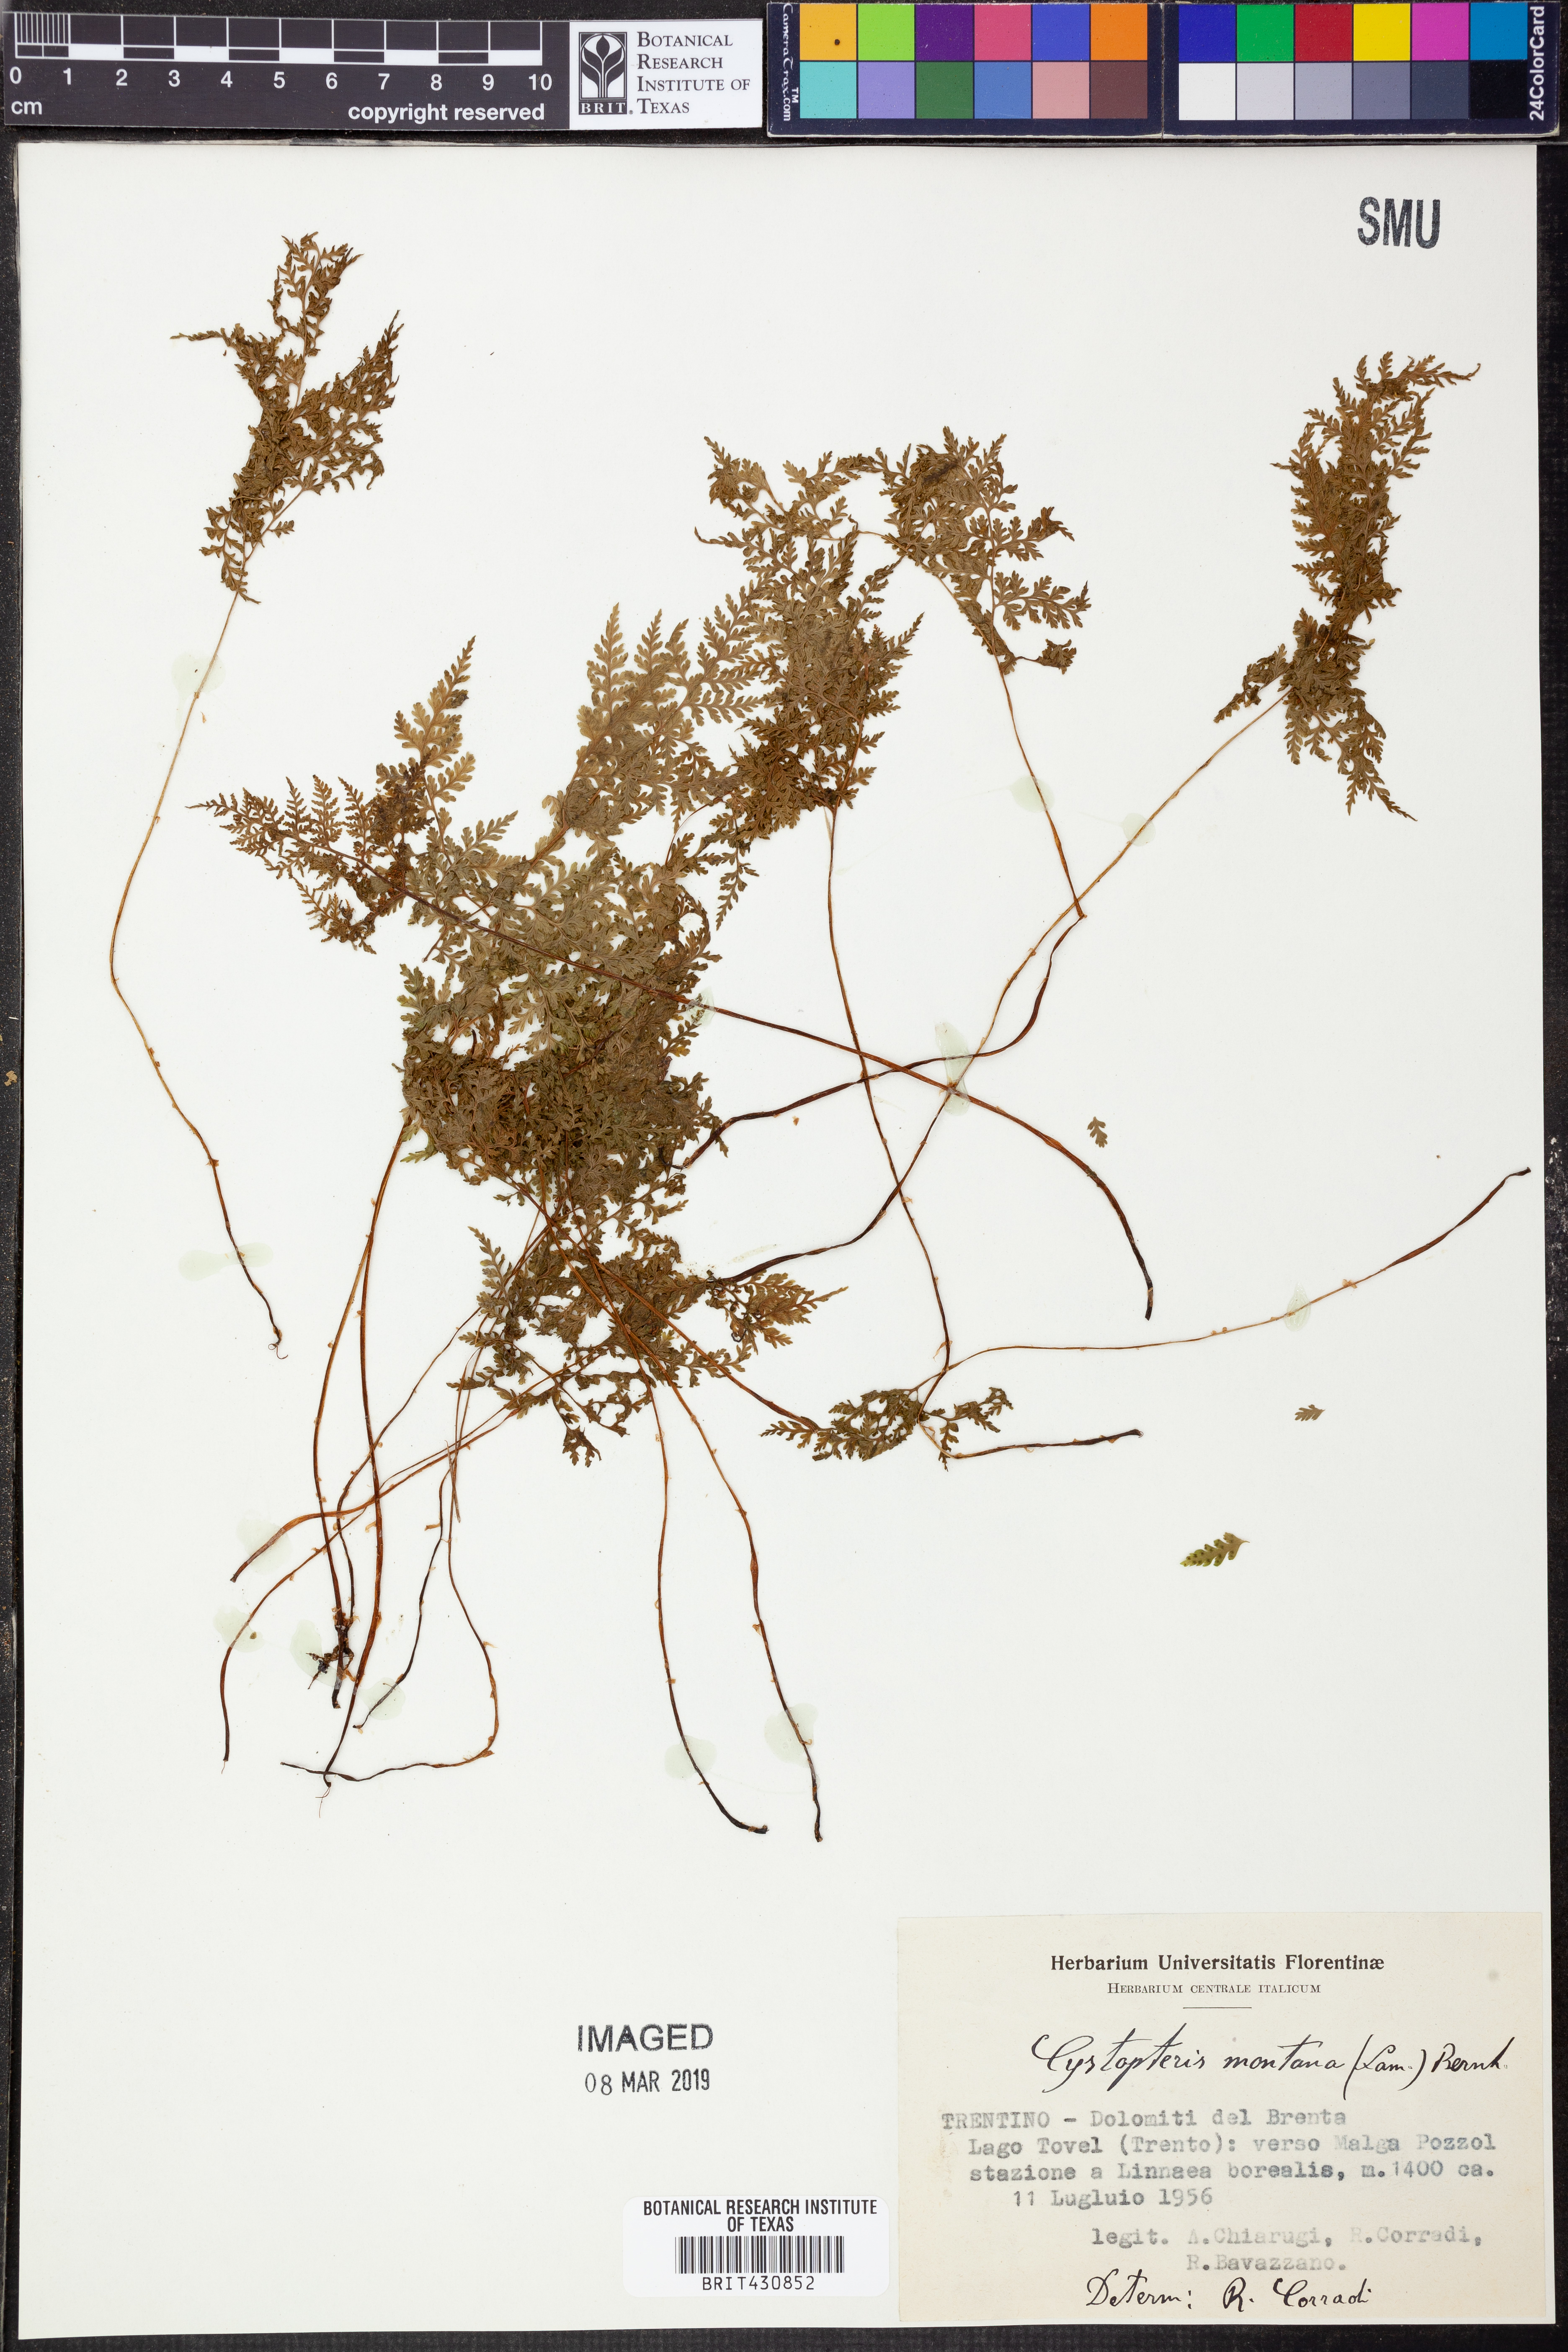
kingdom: Plantae
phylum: Tracheophyta
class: Polypodiopsida
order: Polypodiales
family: Cystopteridaceae
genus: Cystopteris
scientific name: Cystopteris montana
